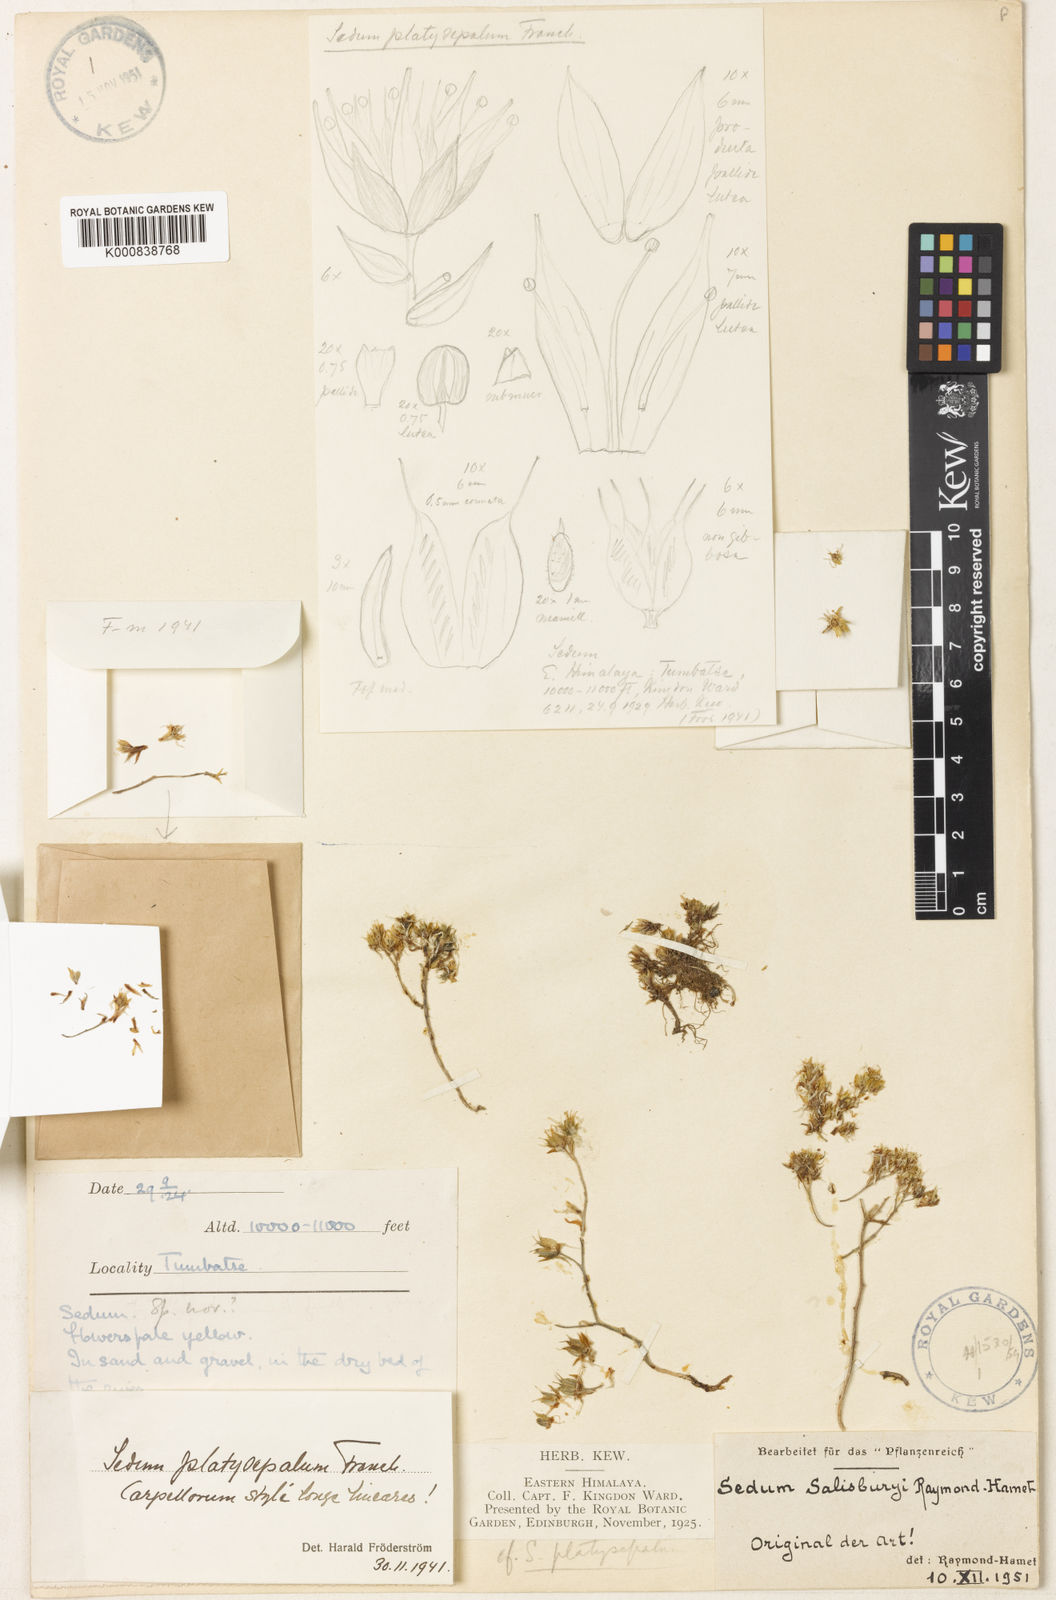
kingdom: Plantae
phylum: Tracheophyta
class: Magnoliopsida
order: Saxifragales
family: Crassulaceae
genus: Sedum
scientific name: Sedum platysepalum
